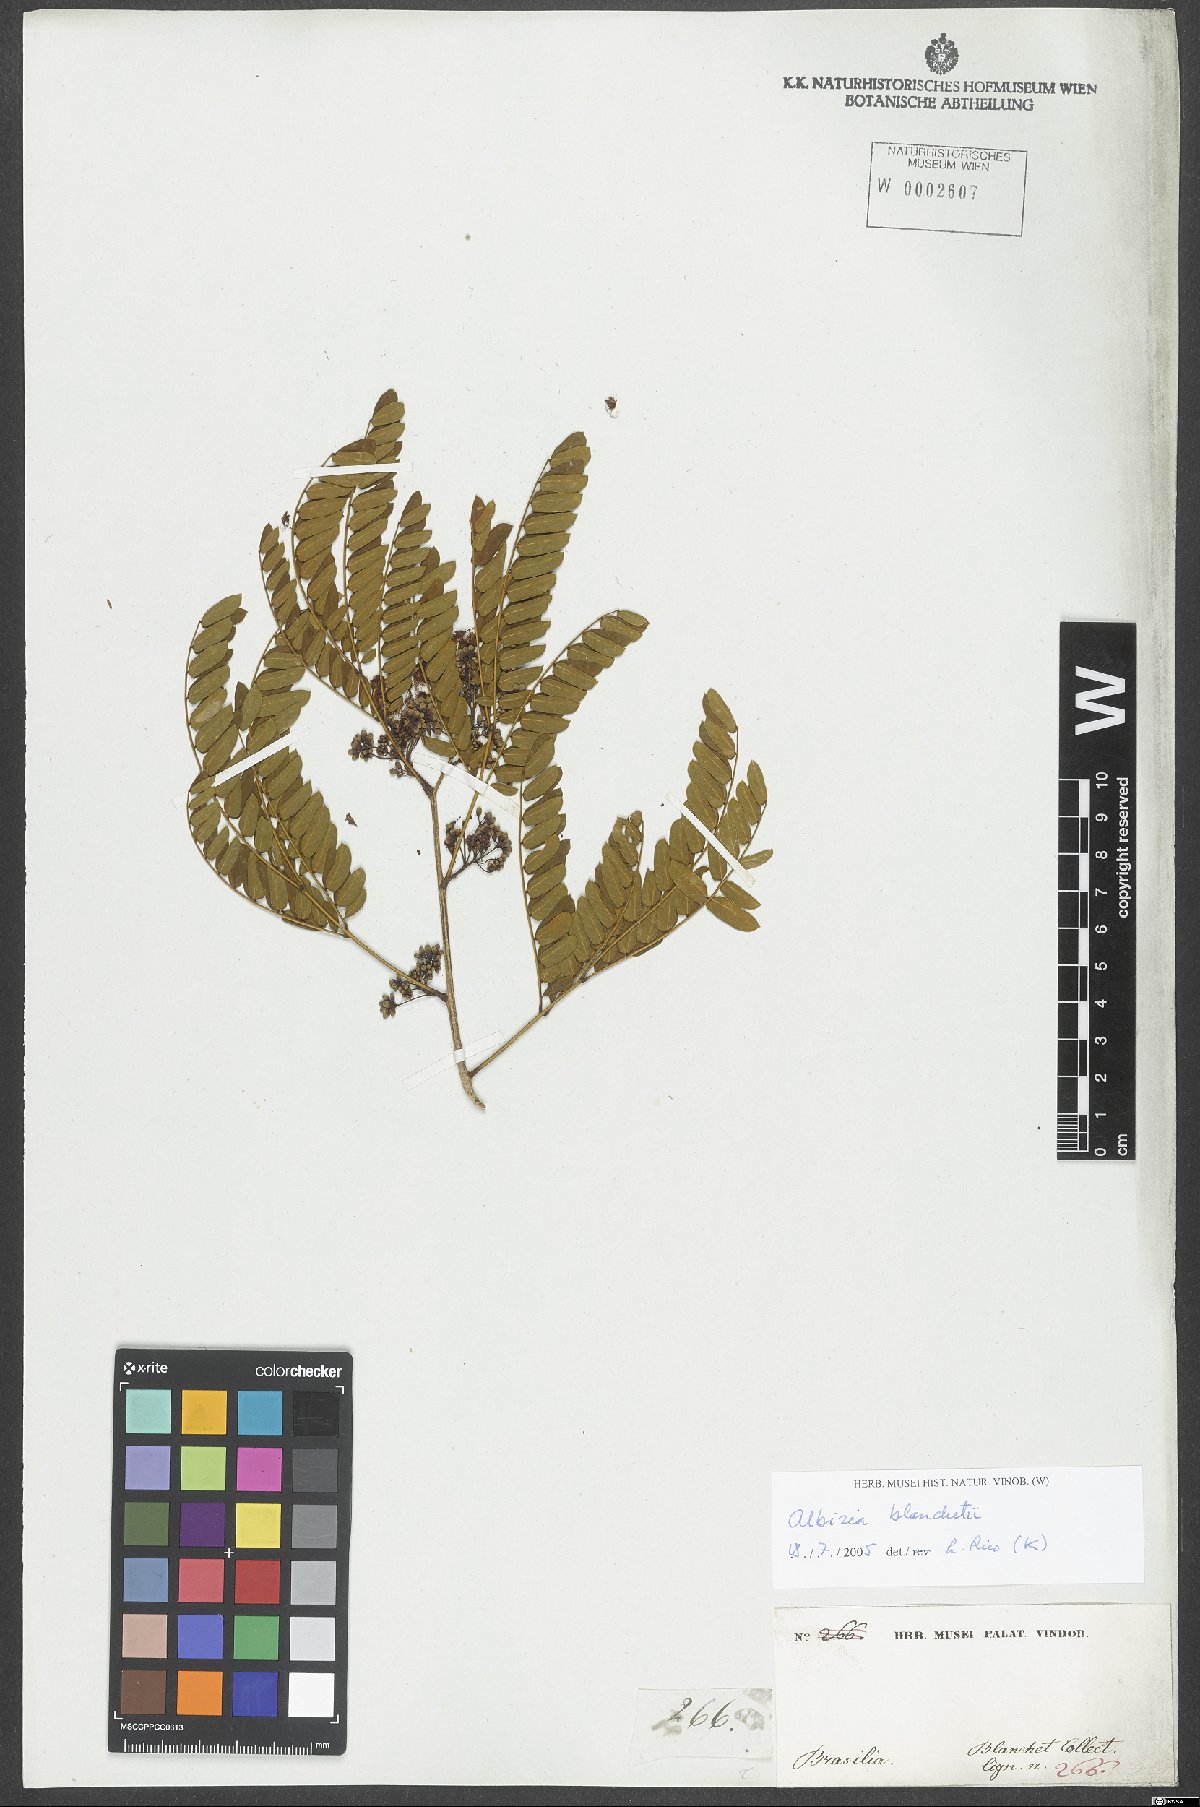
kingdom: Plantae
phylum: Tracheophyta
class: Magnoliopsida
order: Fabales
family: Fabaceae
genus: Blanchetiodendron
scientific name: Blanchetiodendron blanchetii
